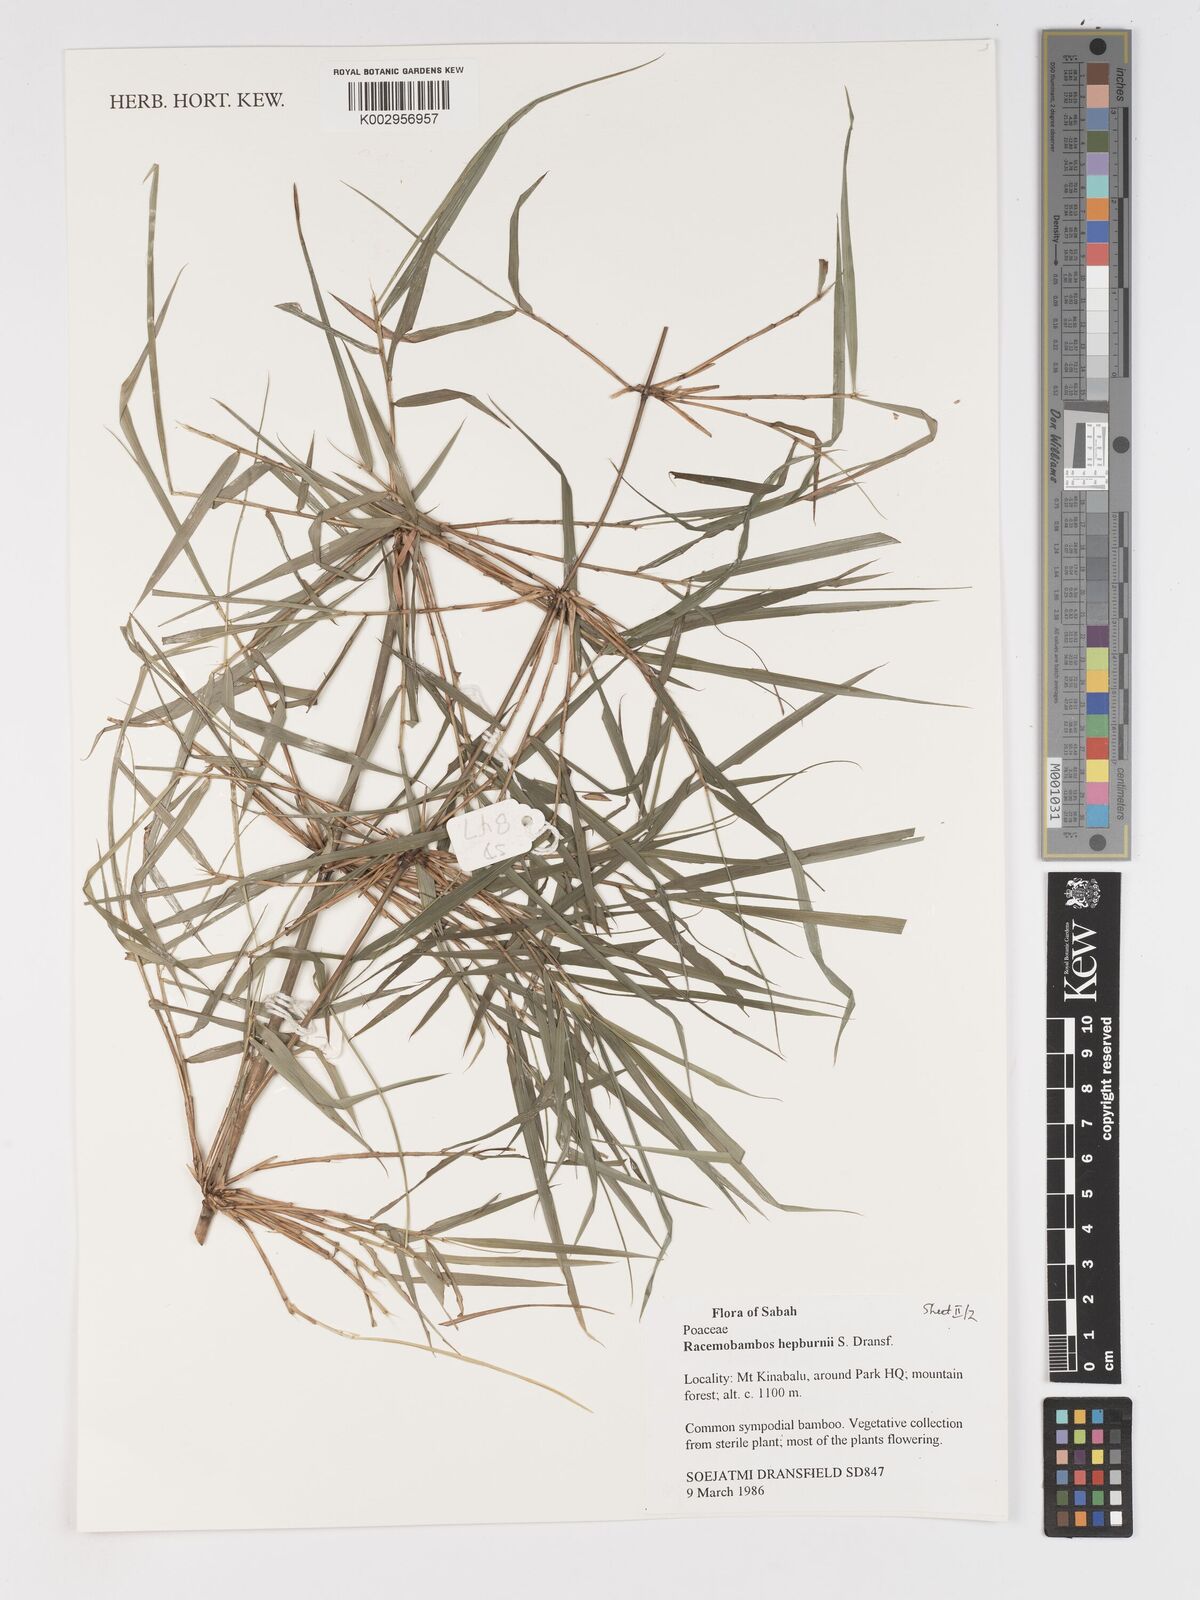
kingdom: Plantae
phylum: Tracheophyta
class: Liliopsida
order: Poales
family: Poaceae
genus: Racemobambos
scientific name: Racemobambos hepburnii
